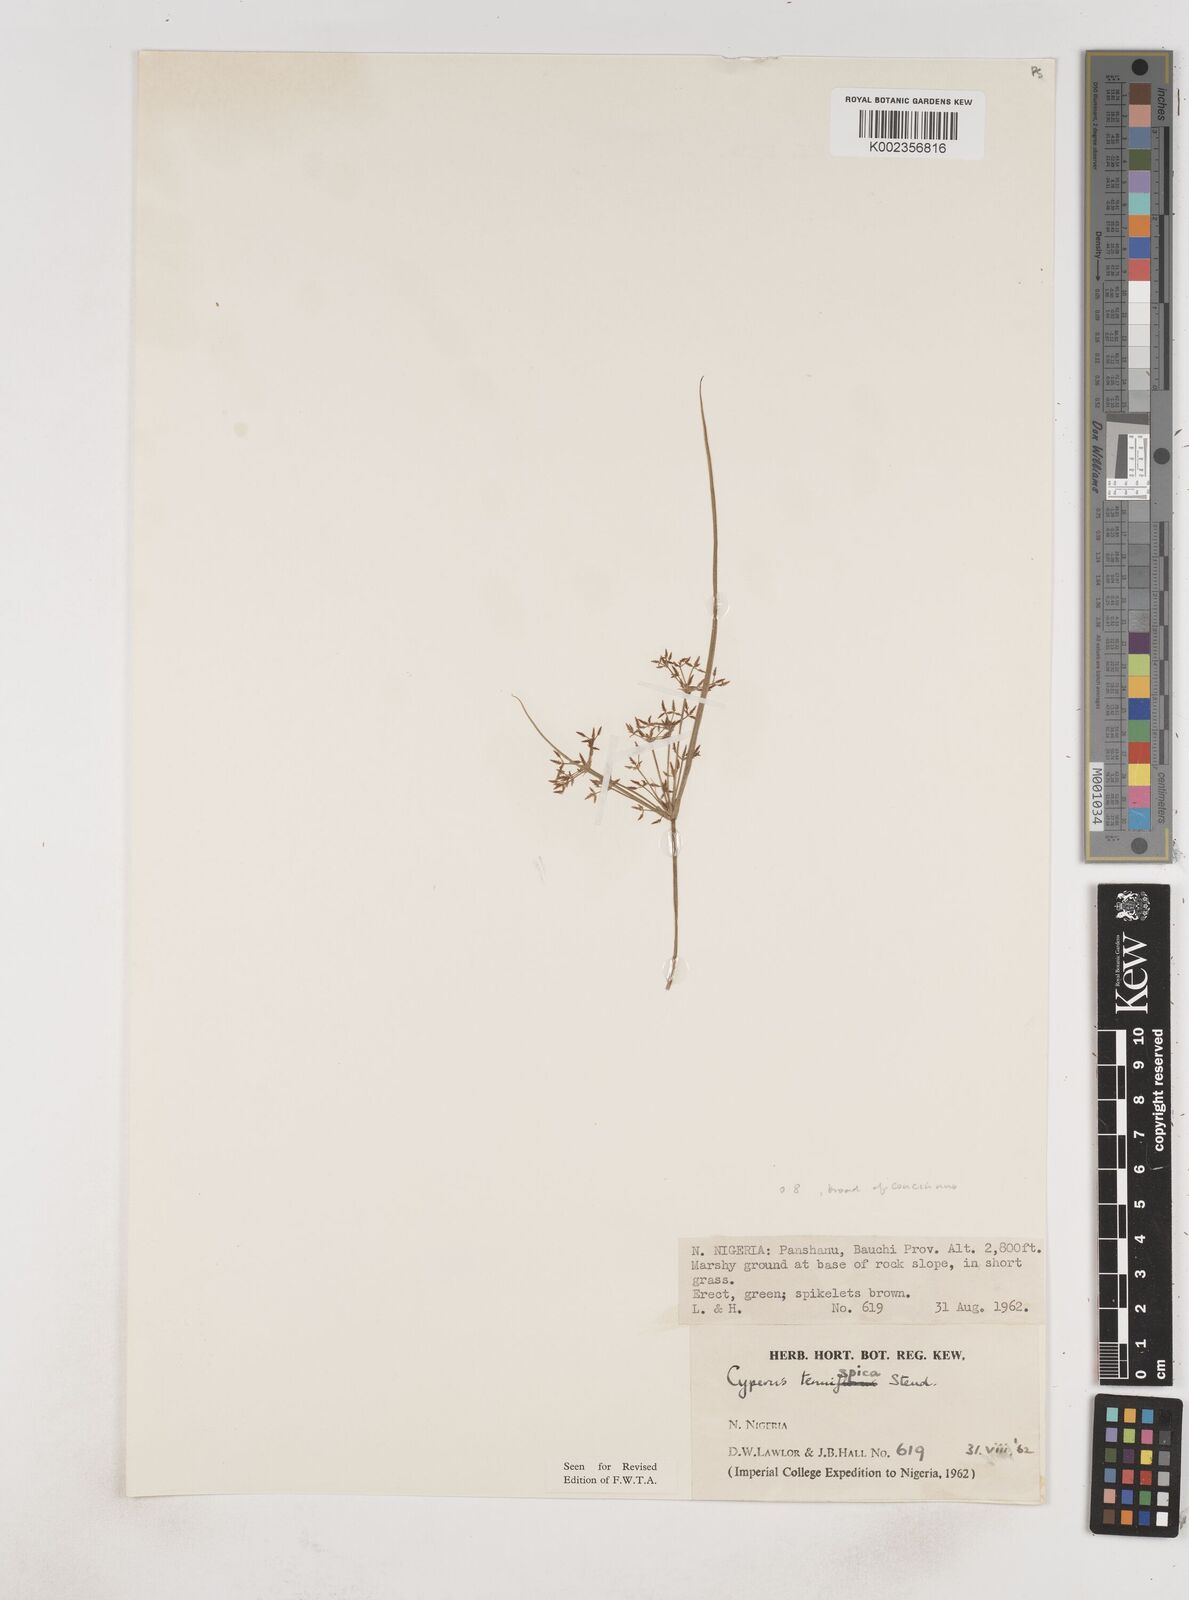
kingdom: Plantae
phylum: Tracheophyta
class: Liliopsida
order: Poales
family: Cyperaceae
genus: Cyperus
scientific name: Cyperus tenuispica
